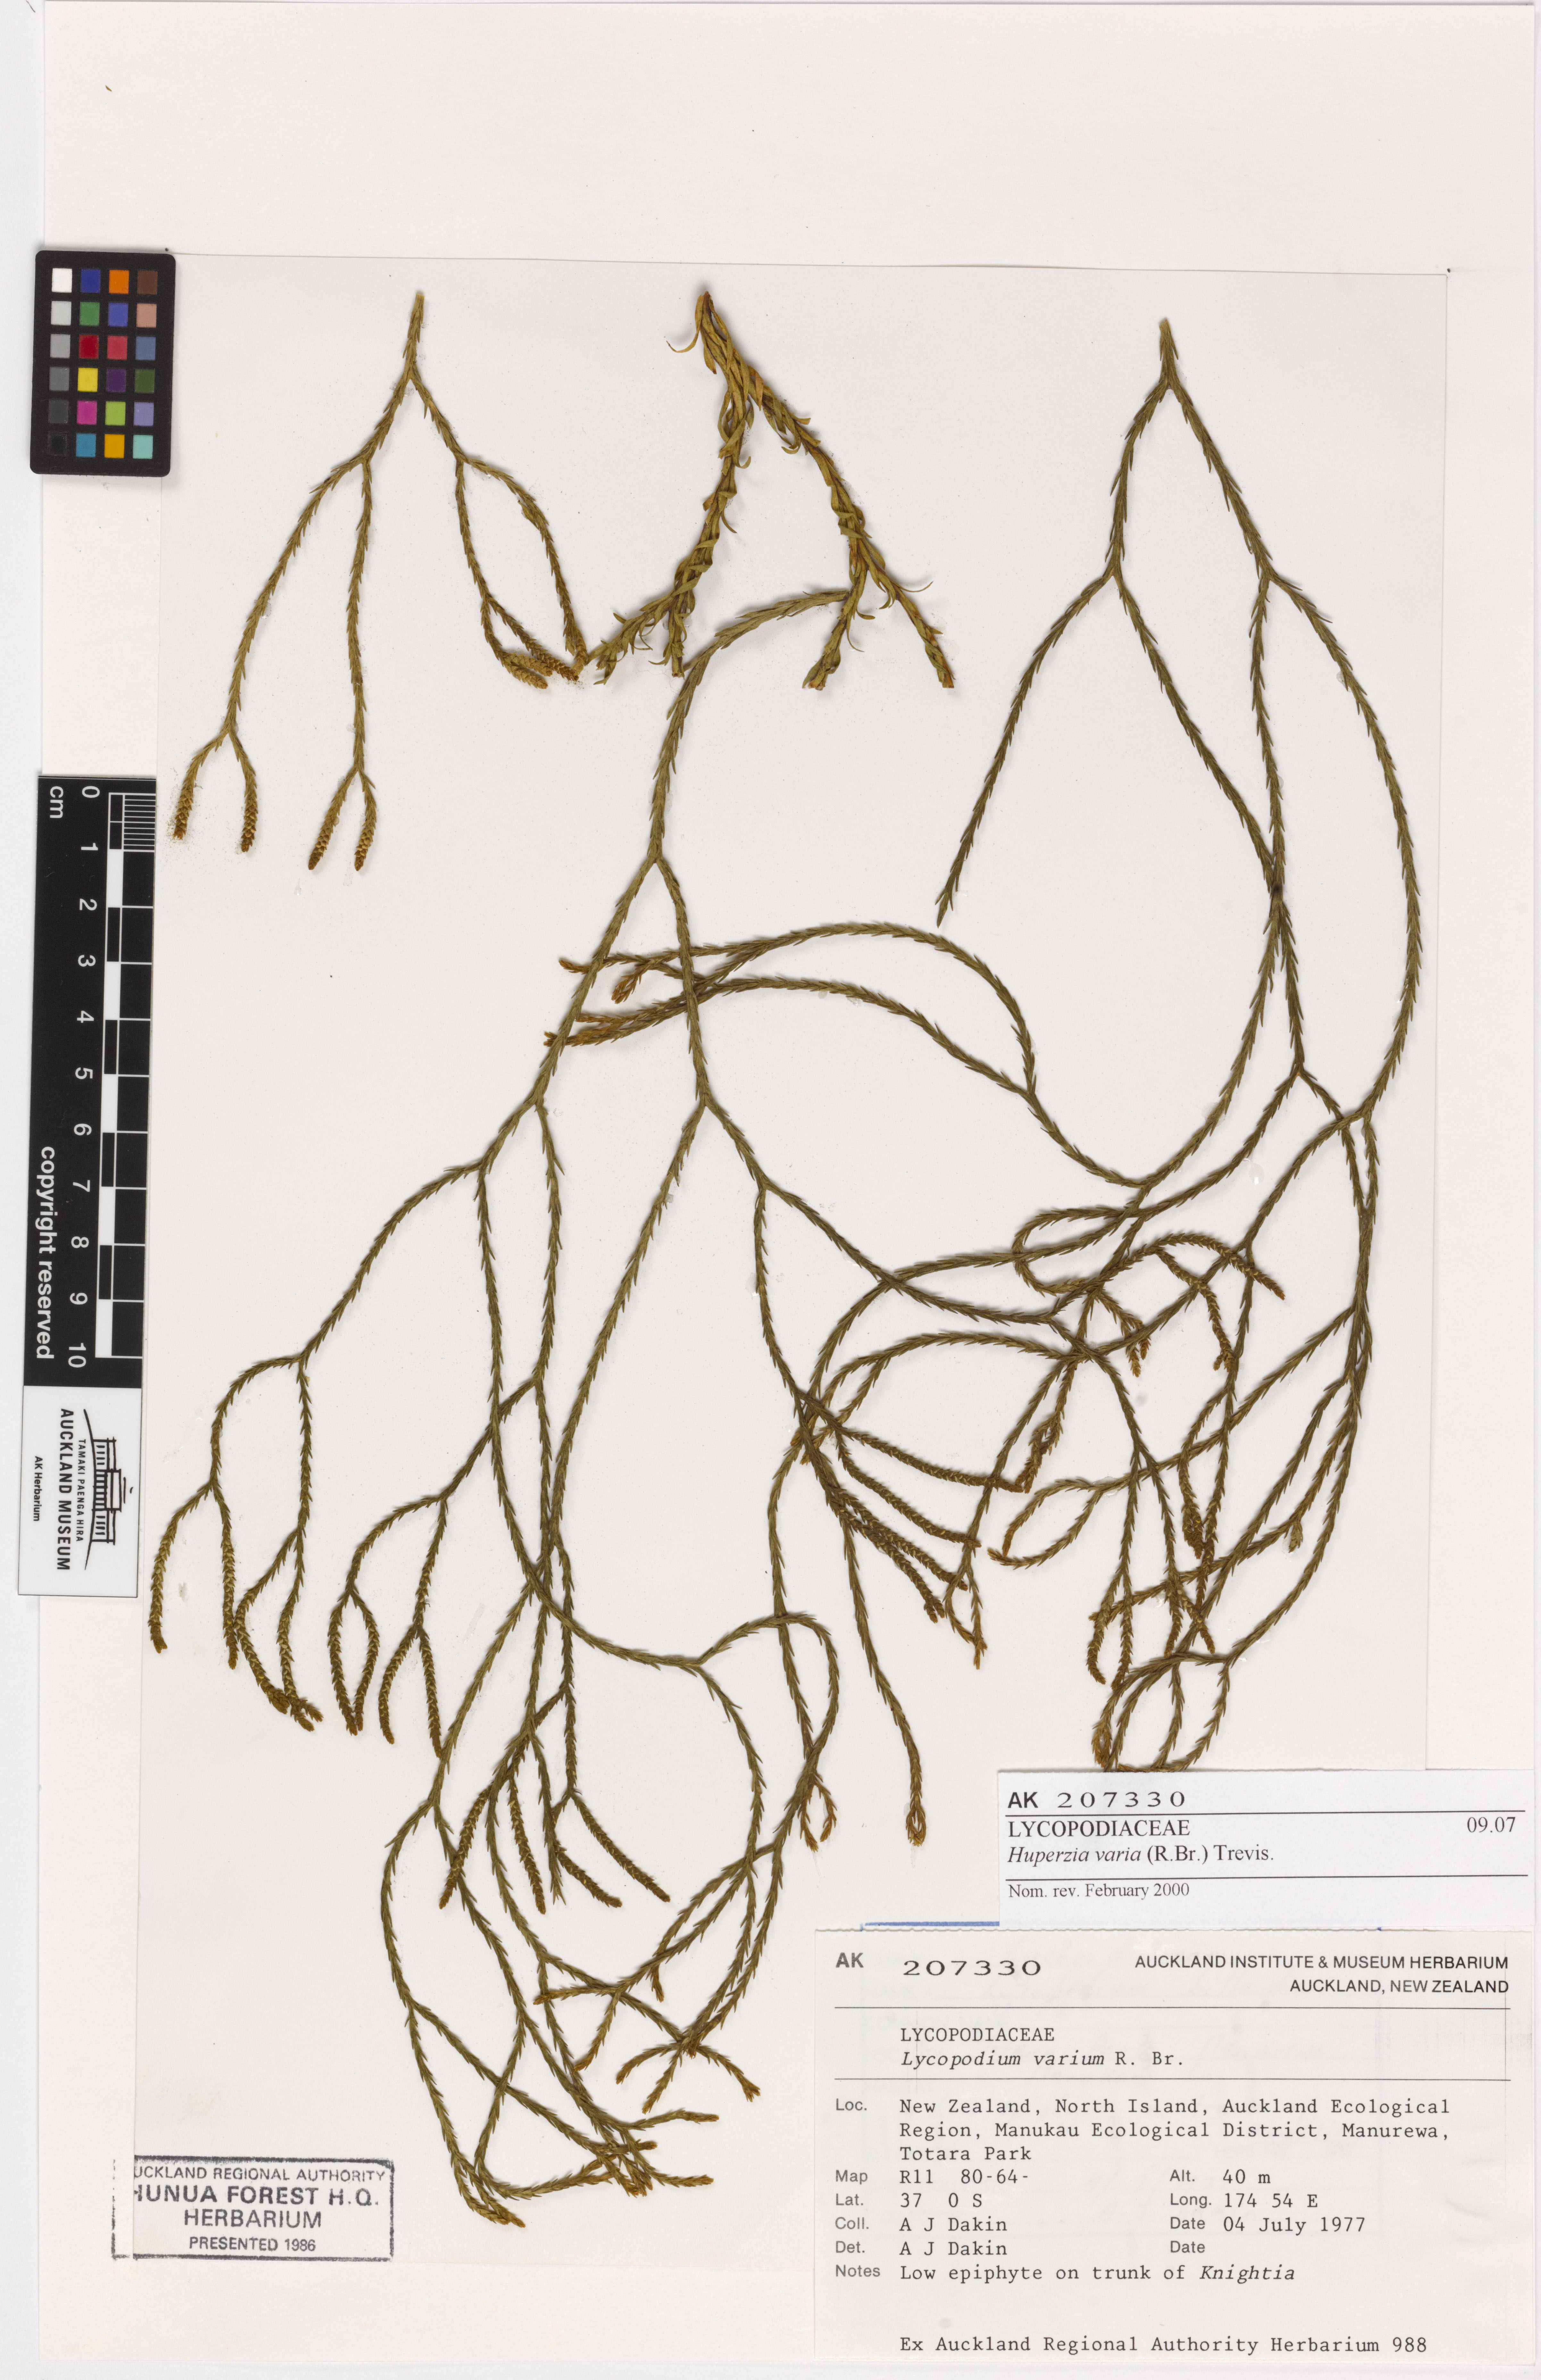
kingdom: Plantae
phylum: Tracheophyta
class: Lycopodiopsida
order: Lycopodiales
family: Lycopodiaceae
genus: Phlegmariurus
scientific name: Phlegmariurus billardierei
